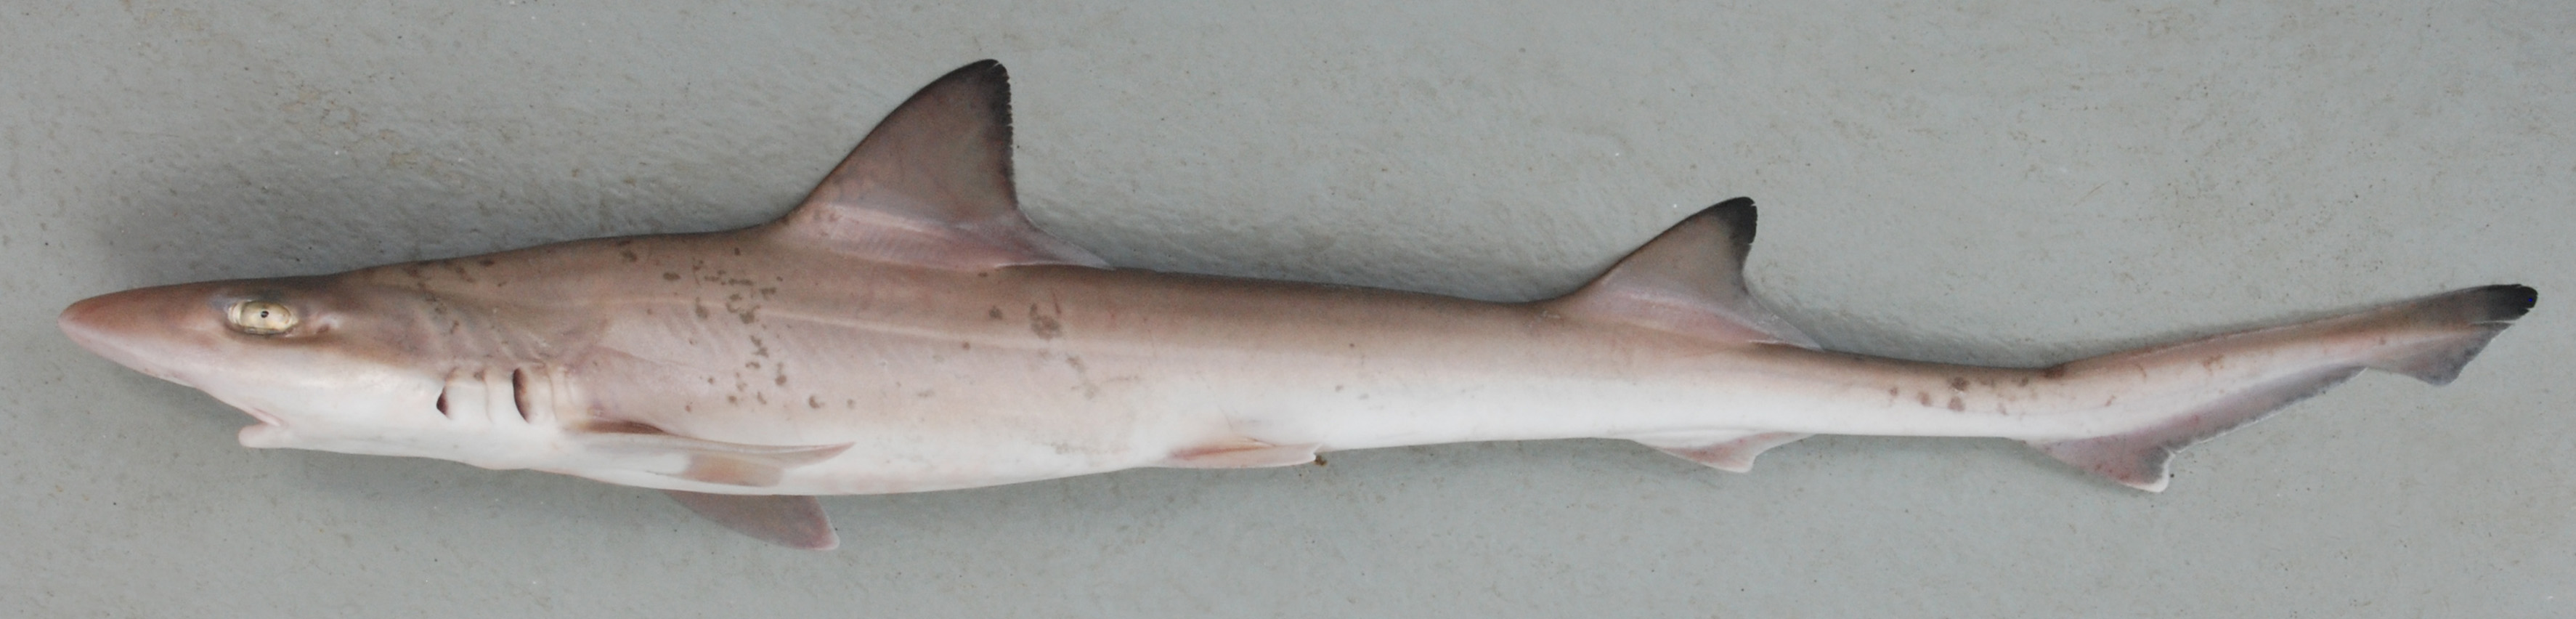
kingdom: Animalia
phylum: Chordata
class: Elasmobranchii
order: Carcharhiniformes
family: Triakidae
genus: Mustelus
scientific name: Mustelus mosis
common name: Arabian smooth-hound
